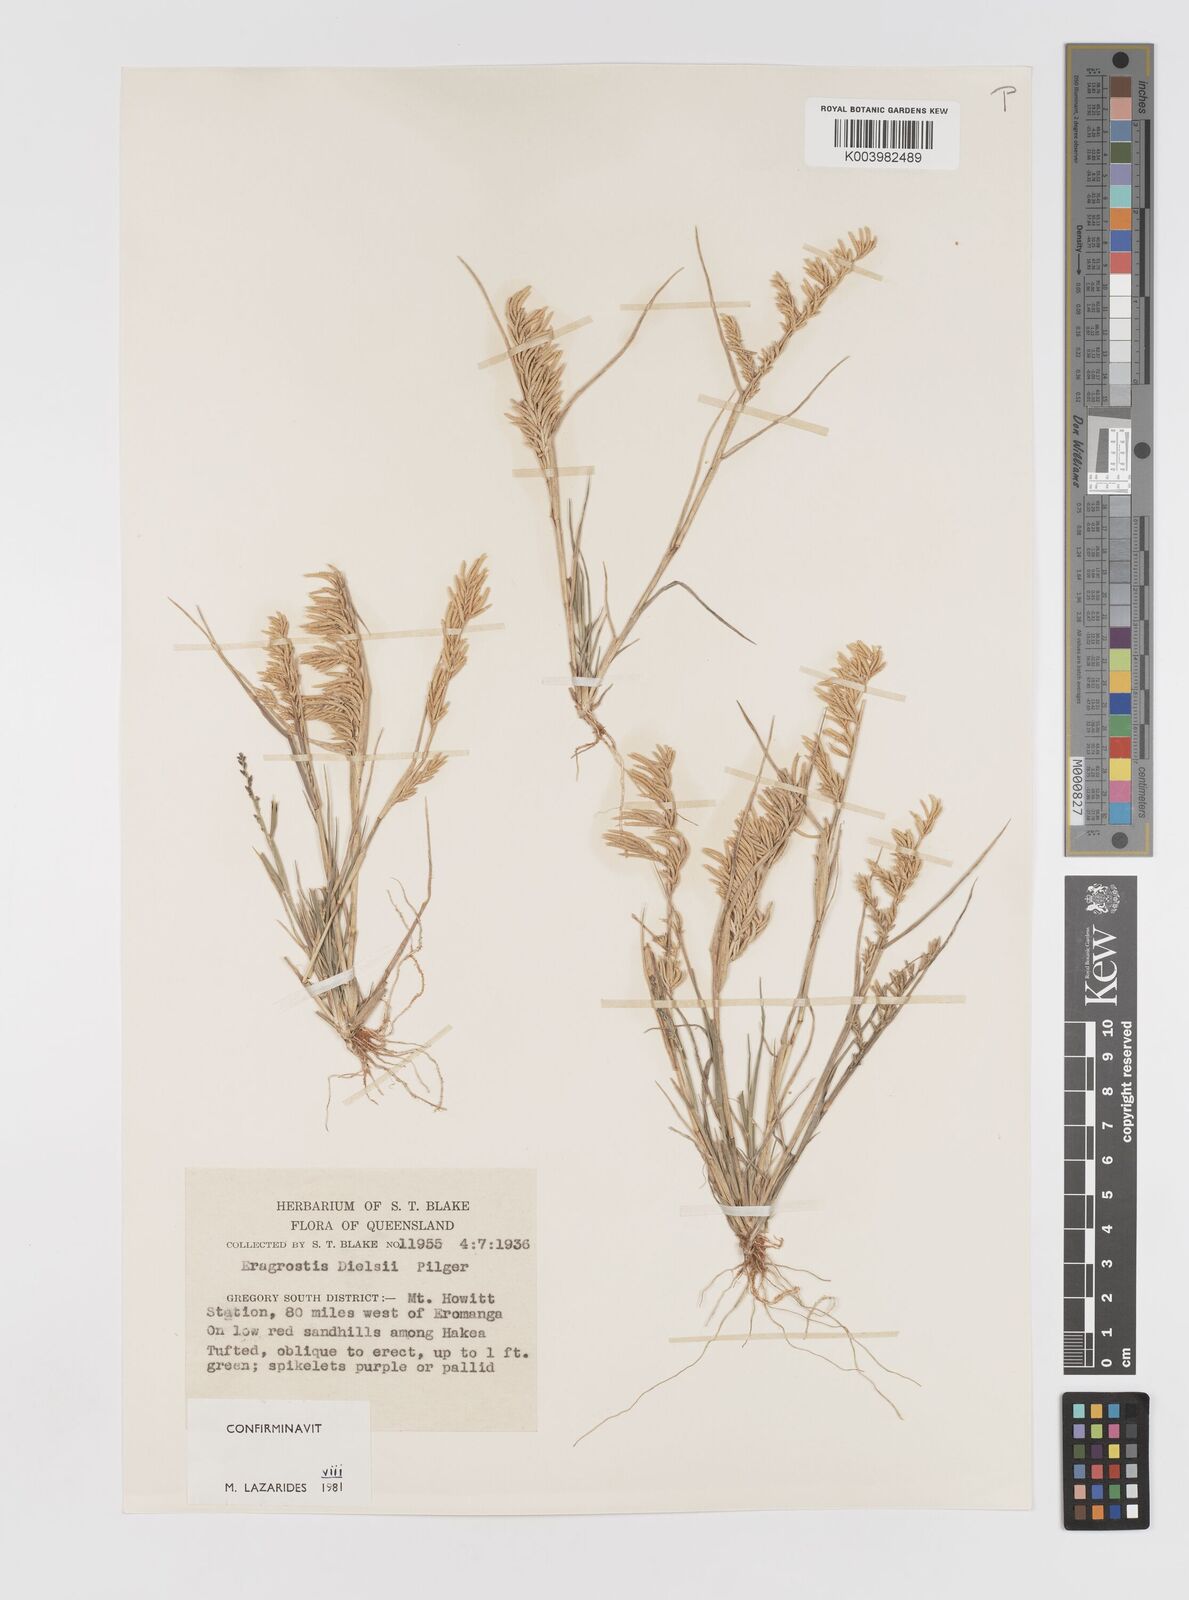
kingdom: Plantae
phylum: Tracheophyta
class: Liliopsida
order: Poales
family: Poaceae
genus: Eragrostis
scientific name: Eragrostis dielsii
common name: Lovegrass
